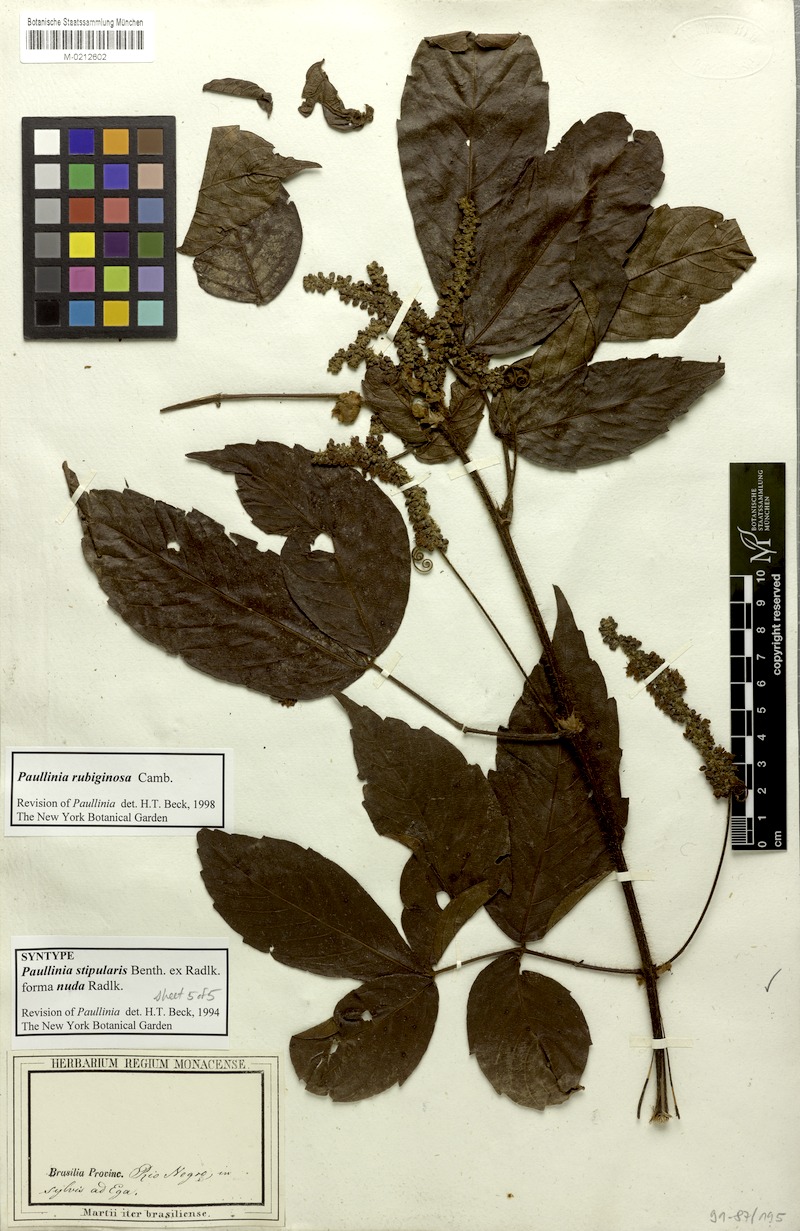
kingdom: Plantae
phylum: Tracheophyta
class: Magnoliopsida
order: Sapindales
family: Sapindaceae
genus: Paullinia
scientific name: Paullinia rubiginosa
